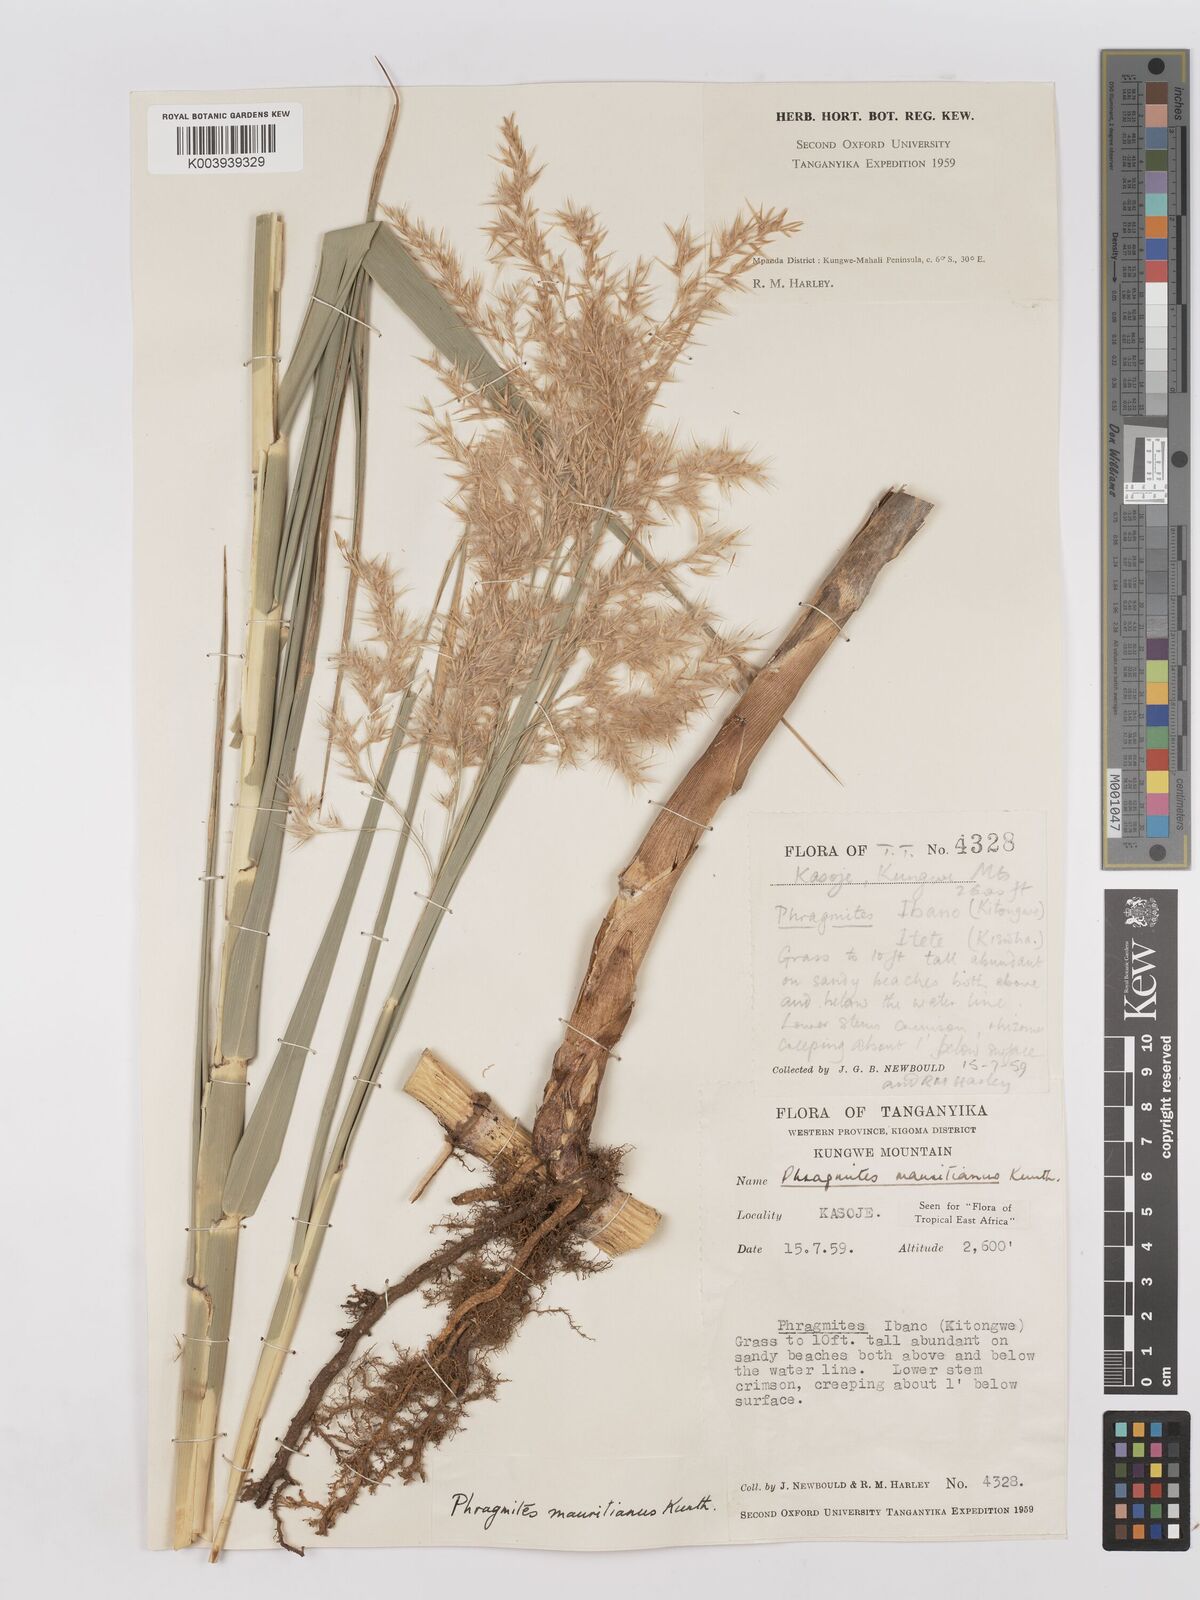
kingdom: Plantae
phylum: Tracheophyta
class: Liliopsida
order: Poales
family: Poaceae
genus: Phragmites
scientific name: Phragmites mauritianus
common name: Reed grass
